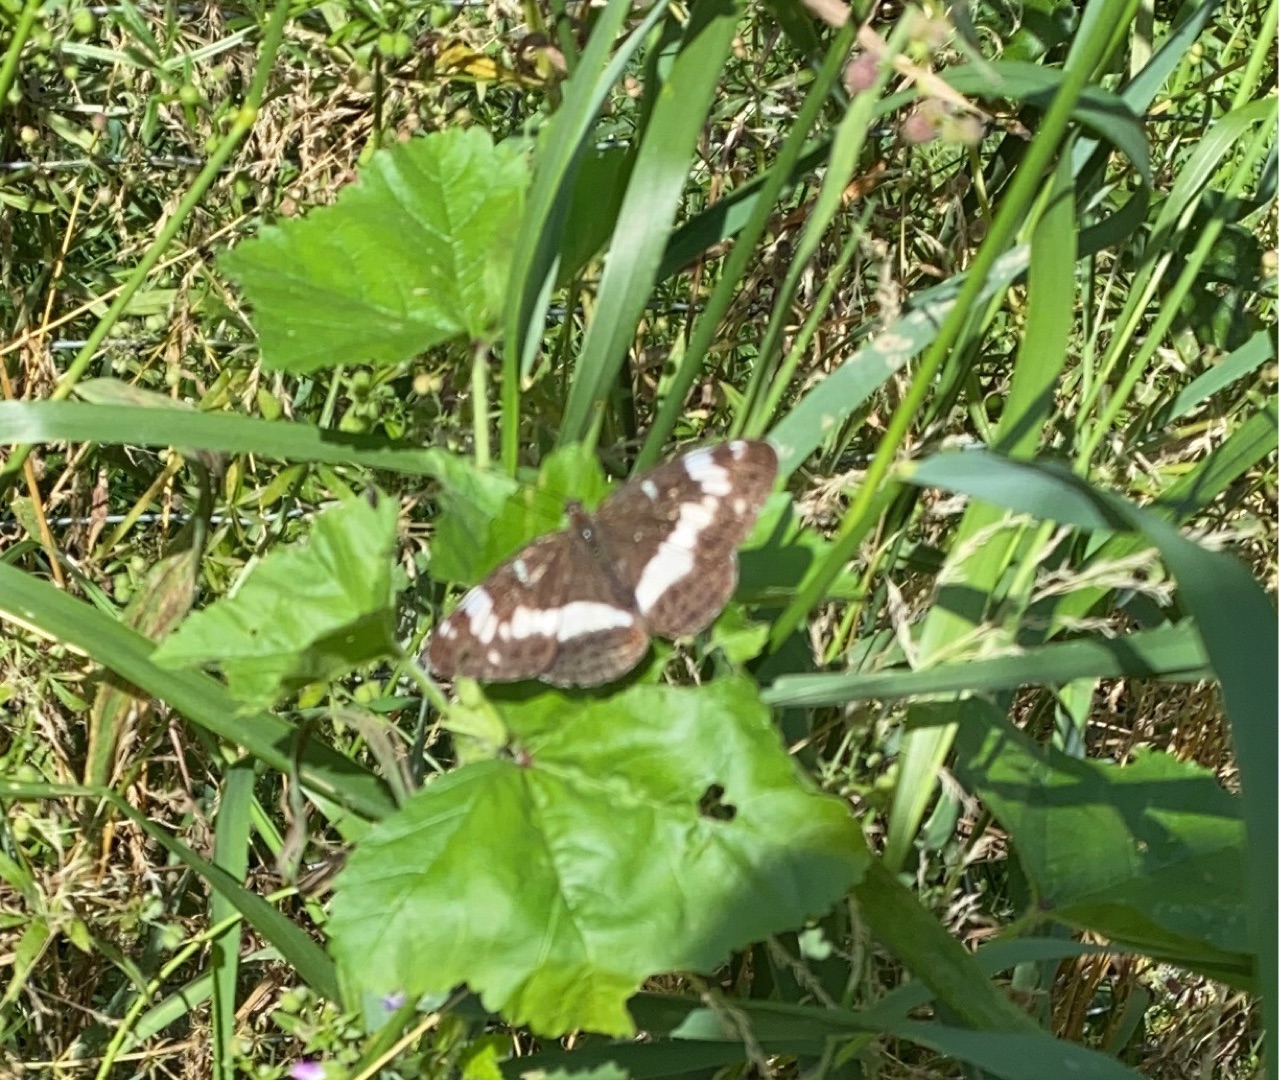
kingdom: Animalia
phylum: Arthropoda
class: Insecta
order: Lepidoptera
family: Nymphalidae
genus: Ladoga
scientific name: Ladoga camilla
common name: Hvid admiral
